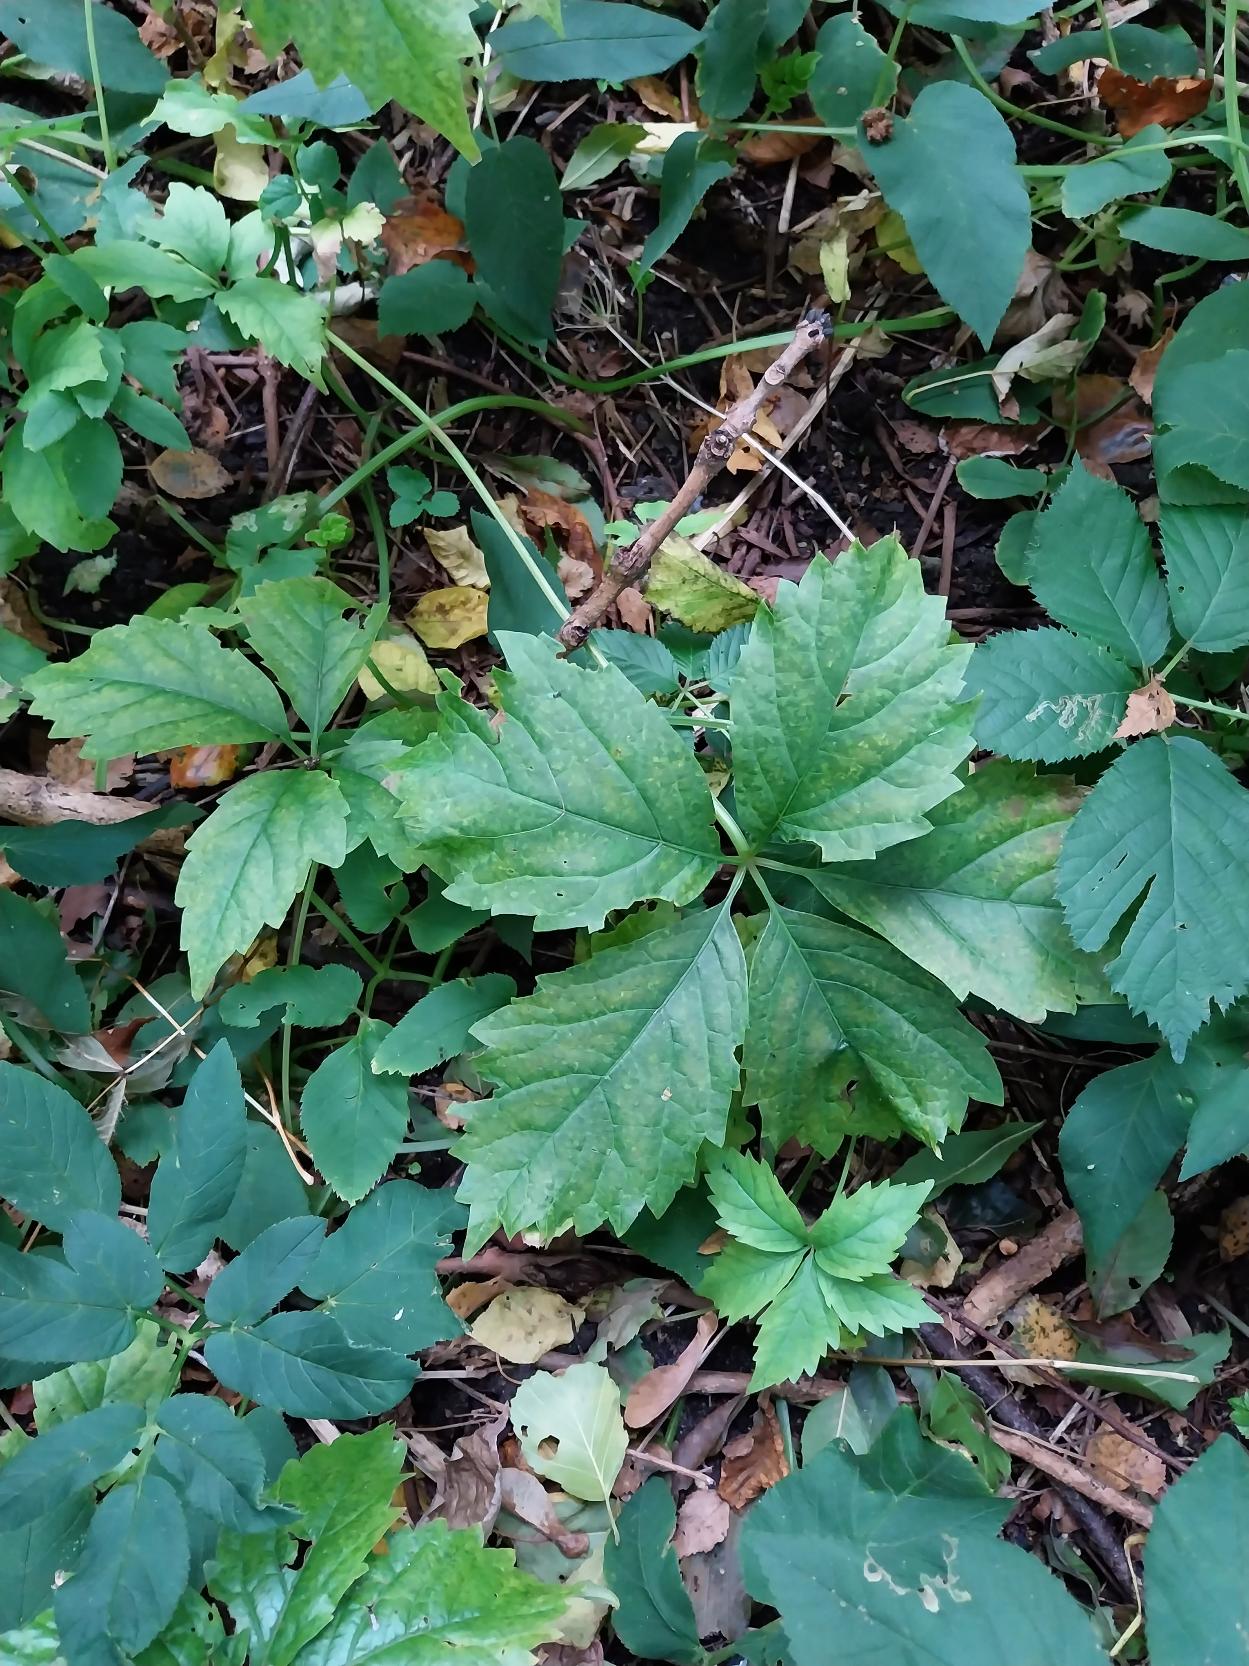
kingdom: Plantae
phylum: Tracheophyta
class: Magnoliopsida
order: Vitales
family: Vitaceae
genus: Parthenocissus
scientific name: Parthenocissus inserta
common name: Vildvin
